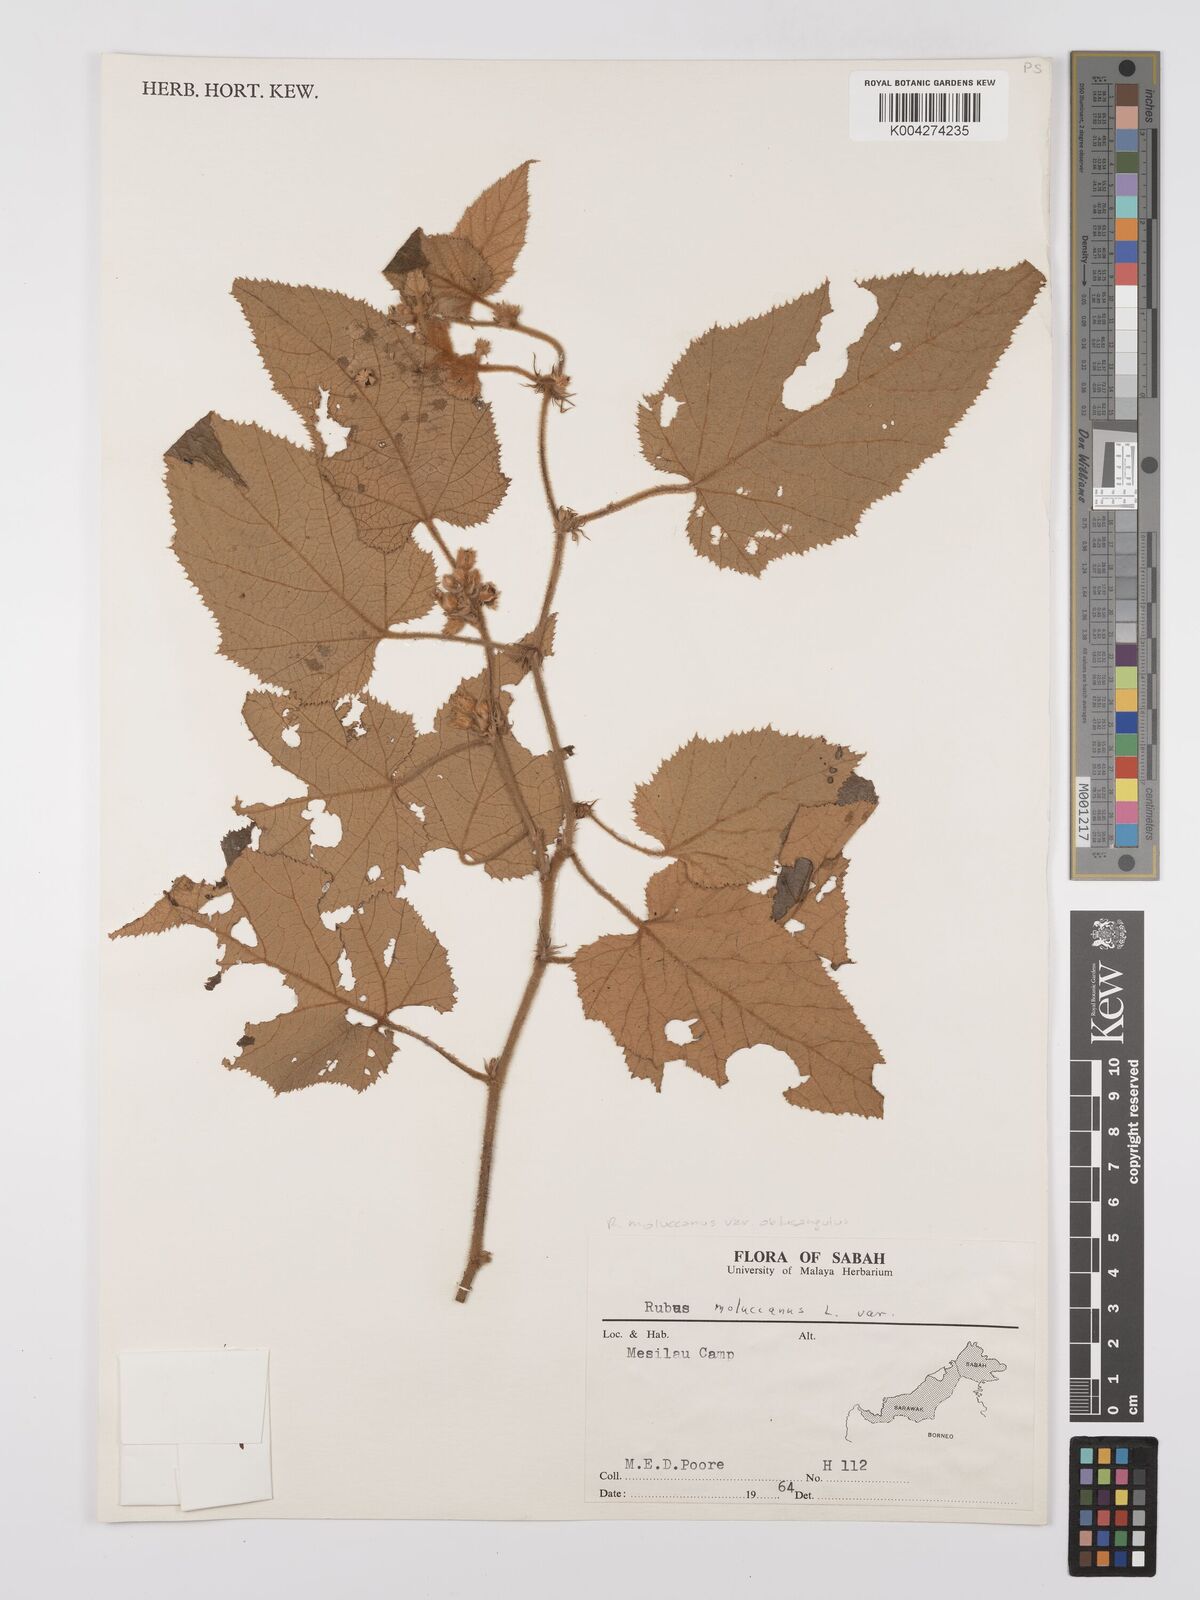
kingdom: Plantae
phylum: Tracheophyta
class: Magnoliopsida
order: Rosales
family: Rosaceae
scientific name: Rosaceae
